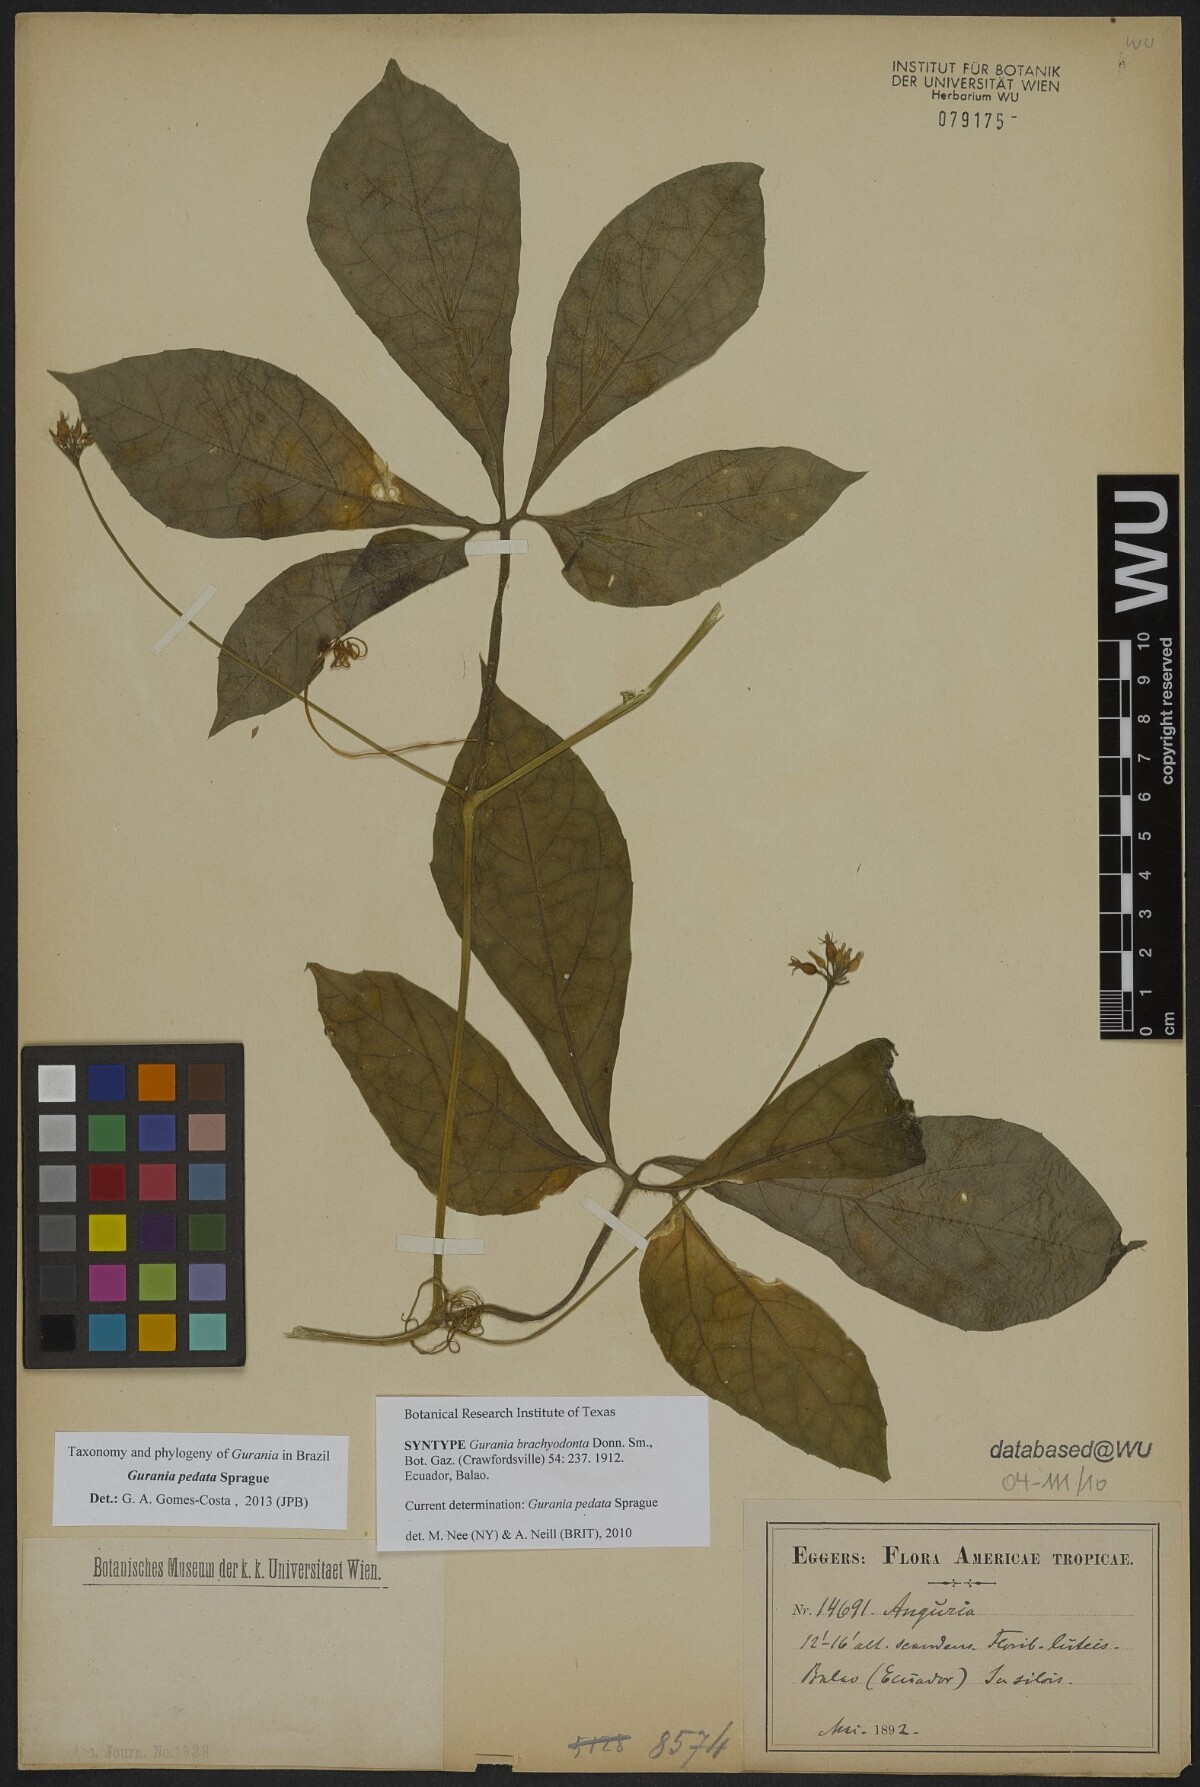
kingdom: Plantae
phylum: Tracheophyta
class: Magnoliopsida
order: Cucurbitales
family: Cucurbitaceae
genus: Gurania
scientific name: Gurania pedata
